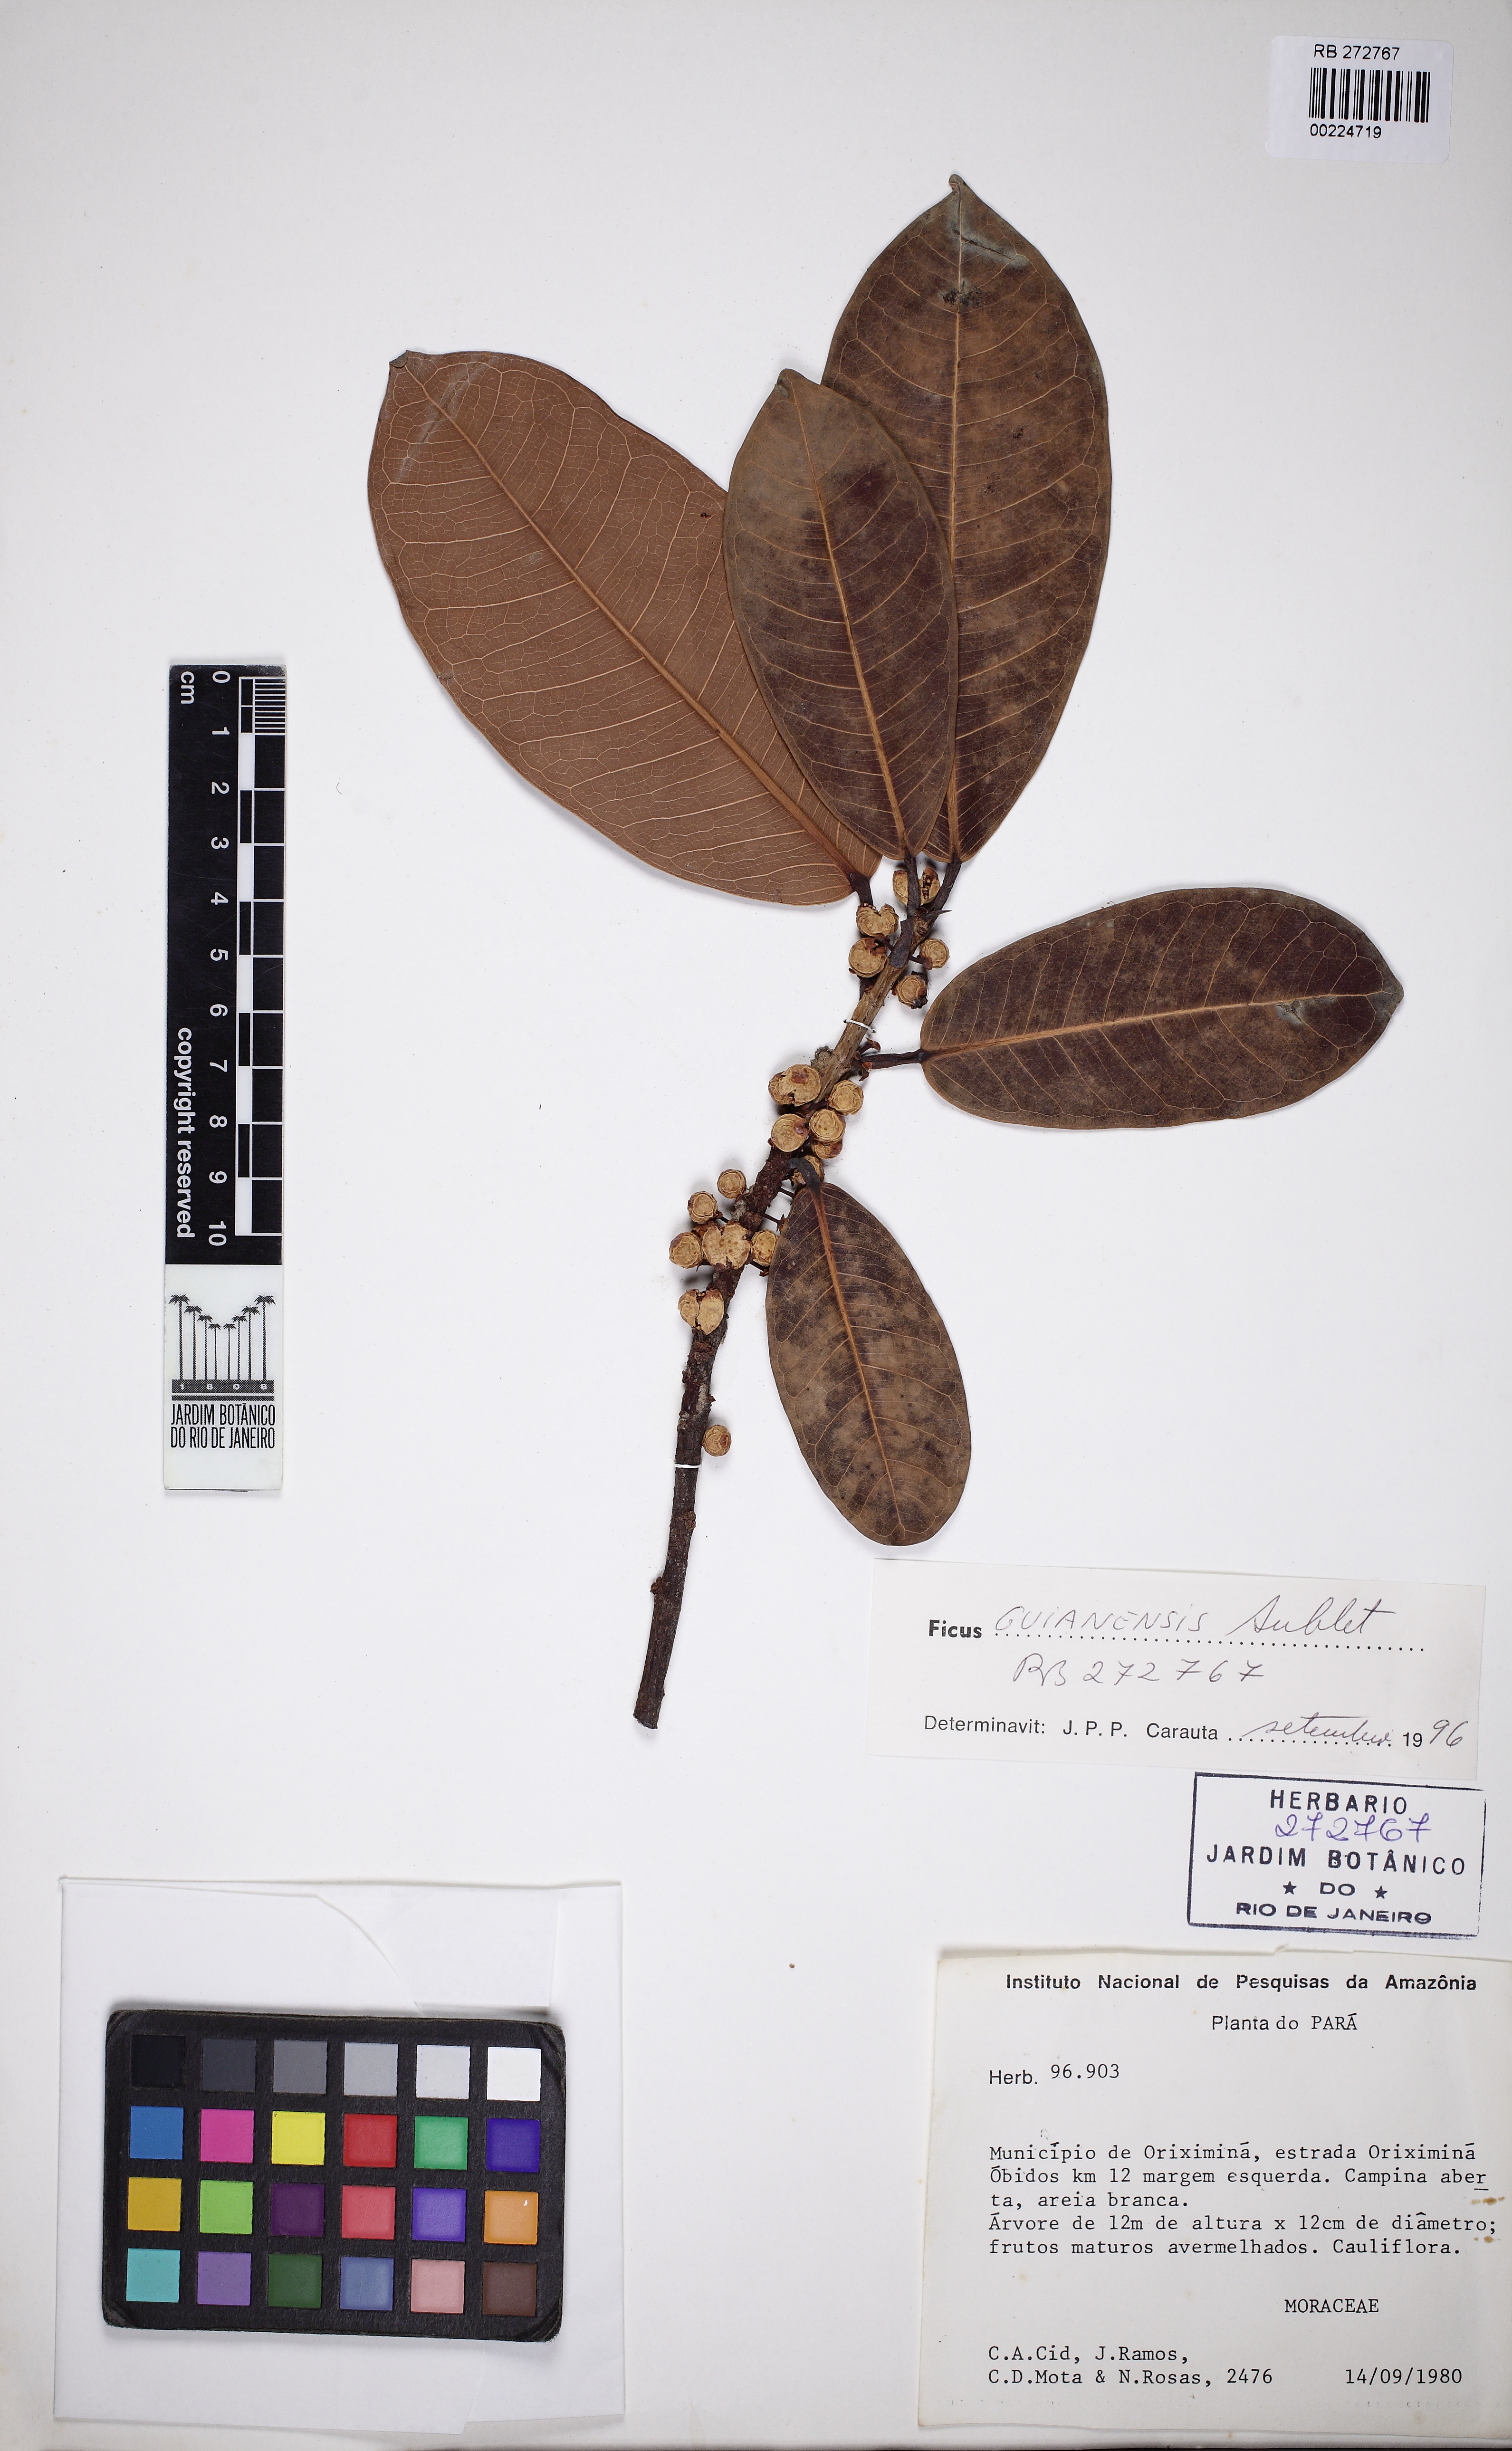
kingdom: Plantae
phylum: Tracheophyta
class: Magnoliopsida
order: Rosales
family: Moraceae
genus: Ficus
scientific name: Ficus americana
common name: Jamaican cherry fig
